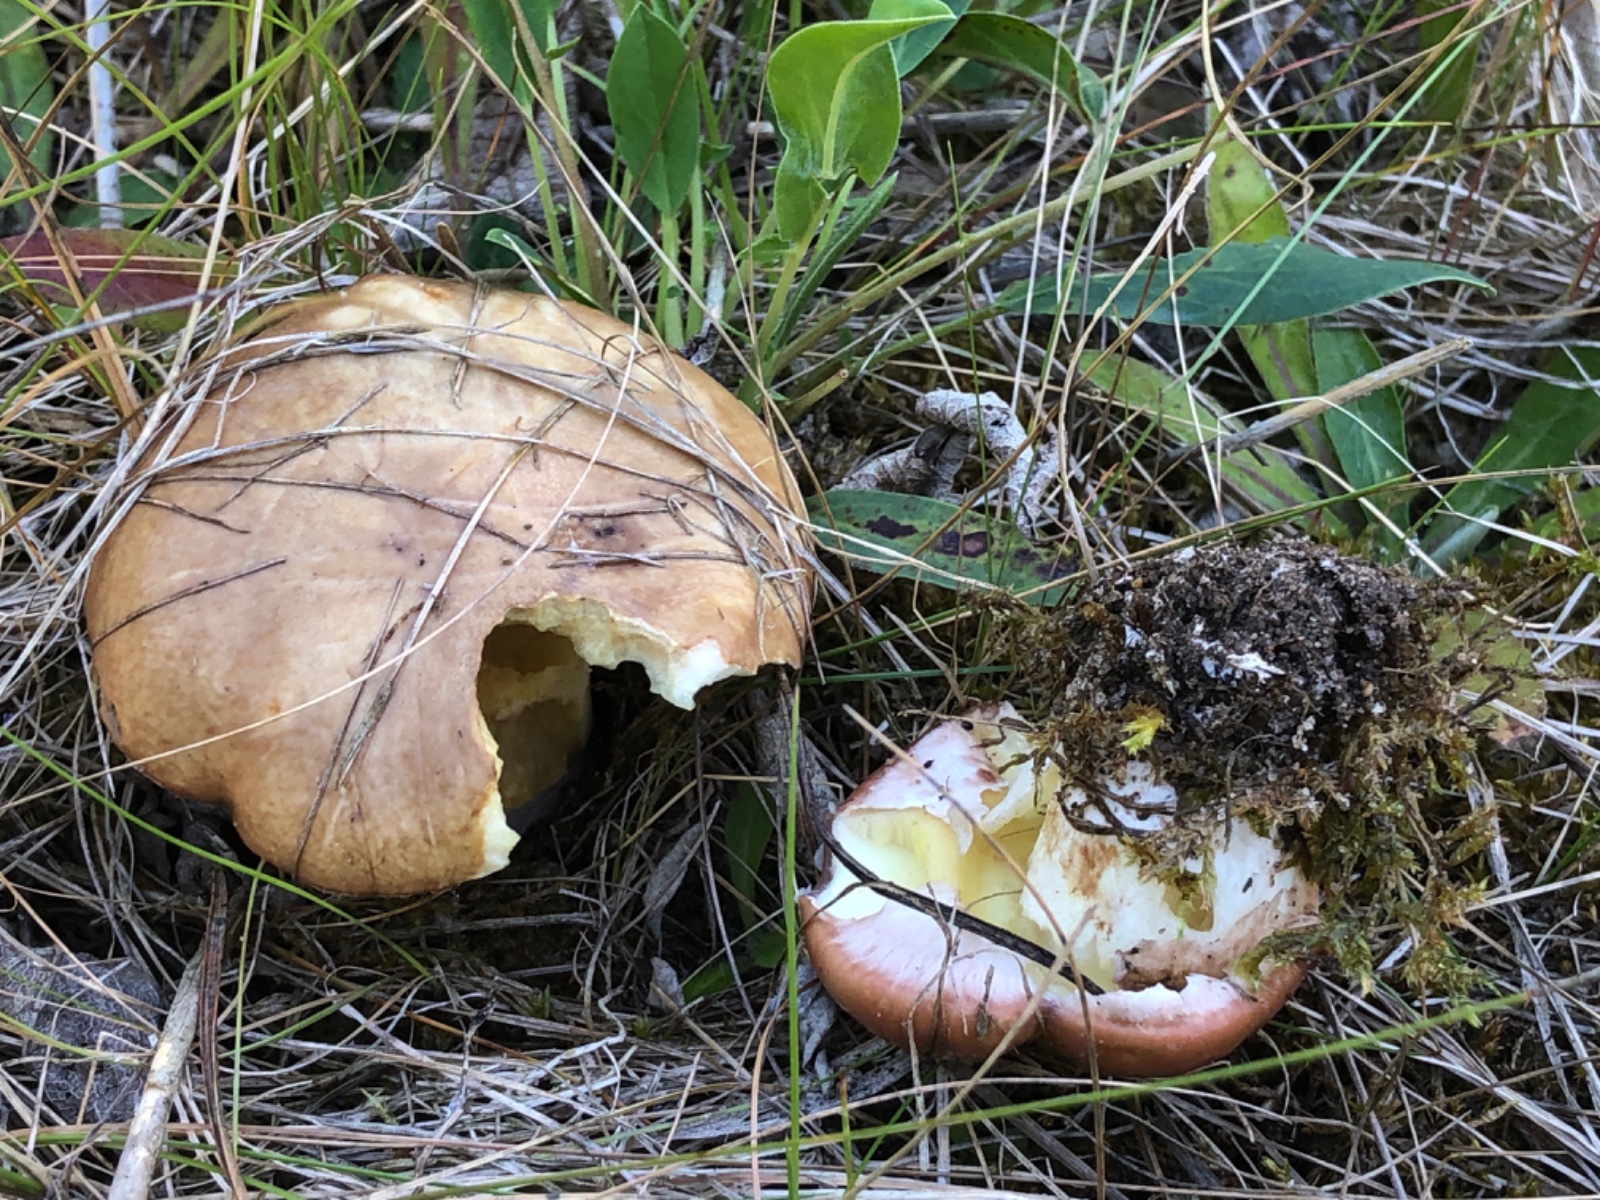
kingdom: Fungi
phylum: Basidiomycota
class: Agaricomycetes
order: Boletales
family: Suillaceae
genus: Suillus
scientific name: Suillus luteus
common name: brungul slimrørhat
